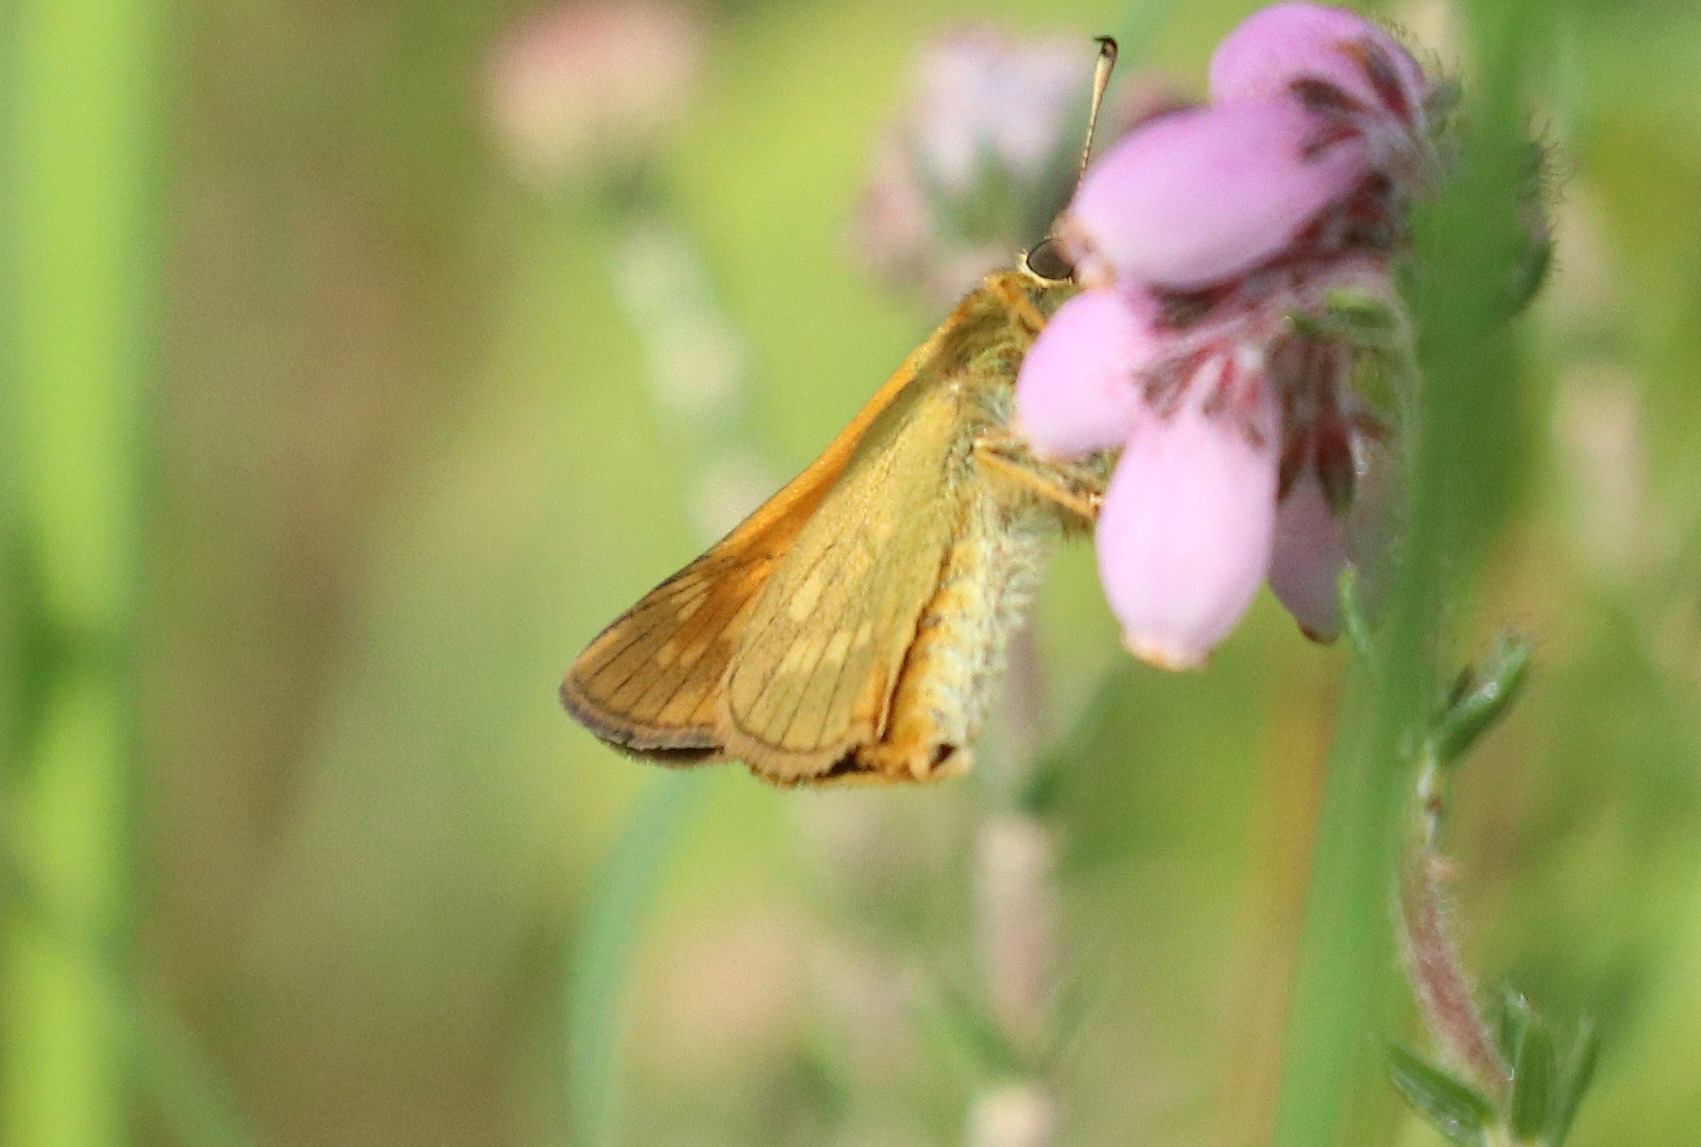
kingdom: Animalia
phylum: Arthropoda
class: Insecta
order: Lepidoptera
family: Hesperiidae
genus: Ochlodes
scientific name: Ochlodes venata
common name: Stor bredpande
